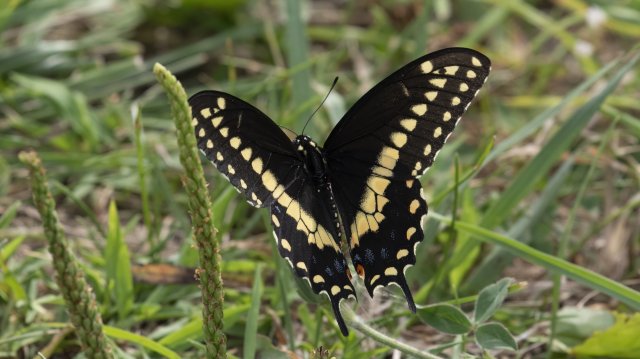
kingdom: Animalia
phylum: Arthropoda
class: Insecta
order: Lepidoptera
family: Papilionidae
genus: Papilio
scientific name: Papilio polyxenes
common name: Black Swallowtail
